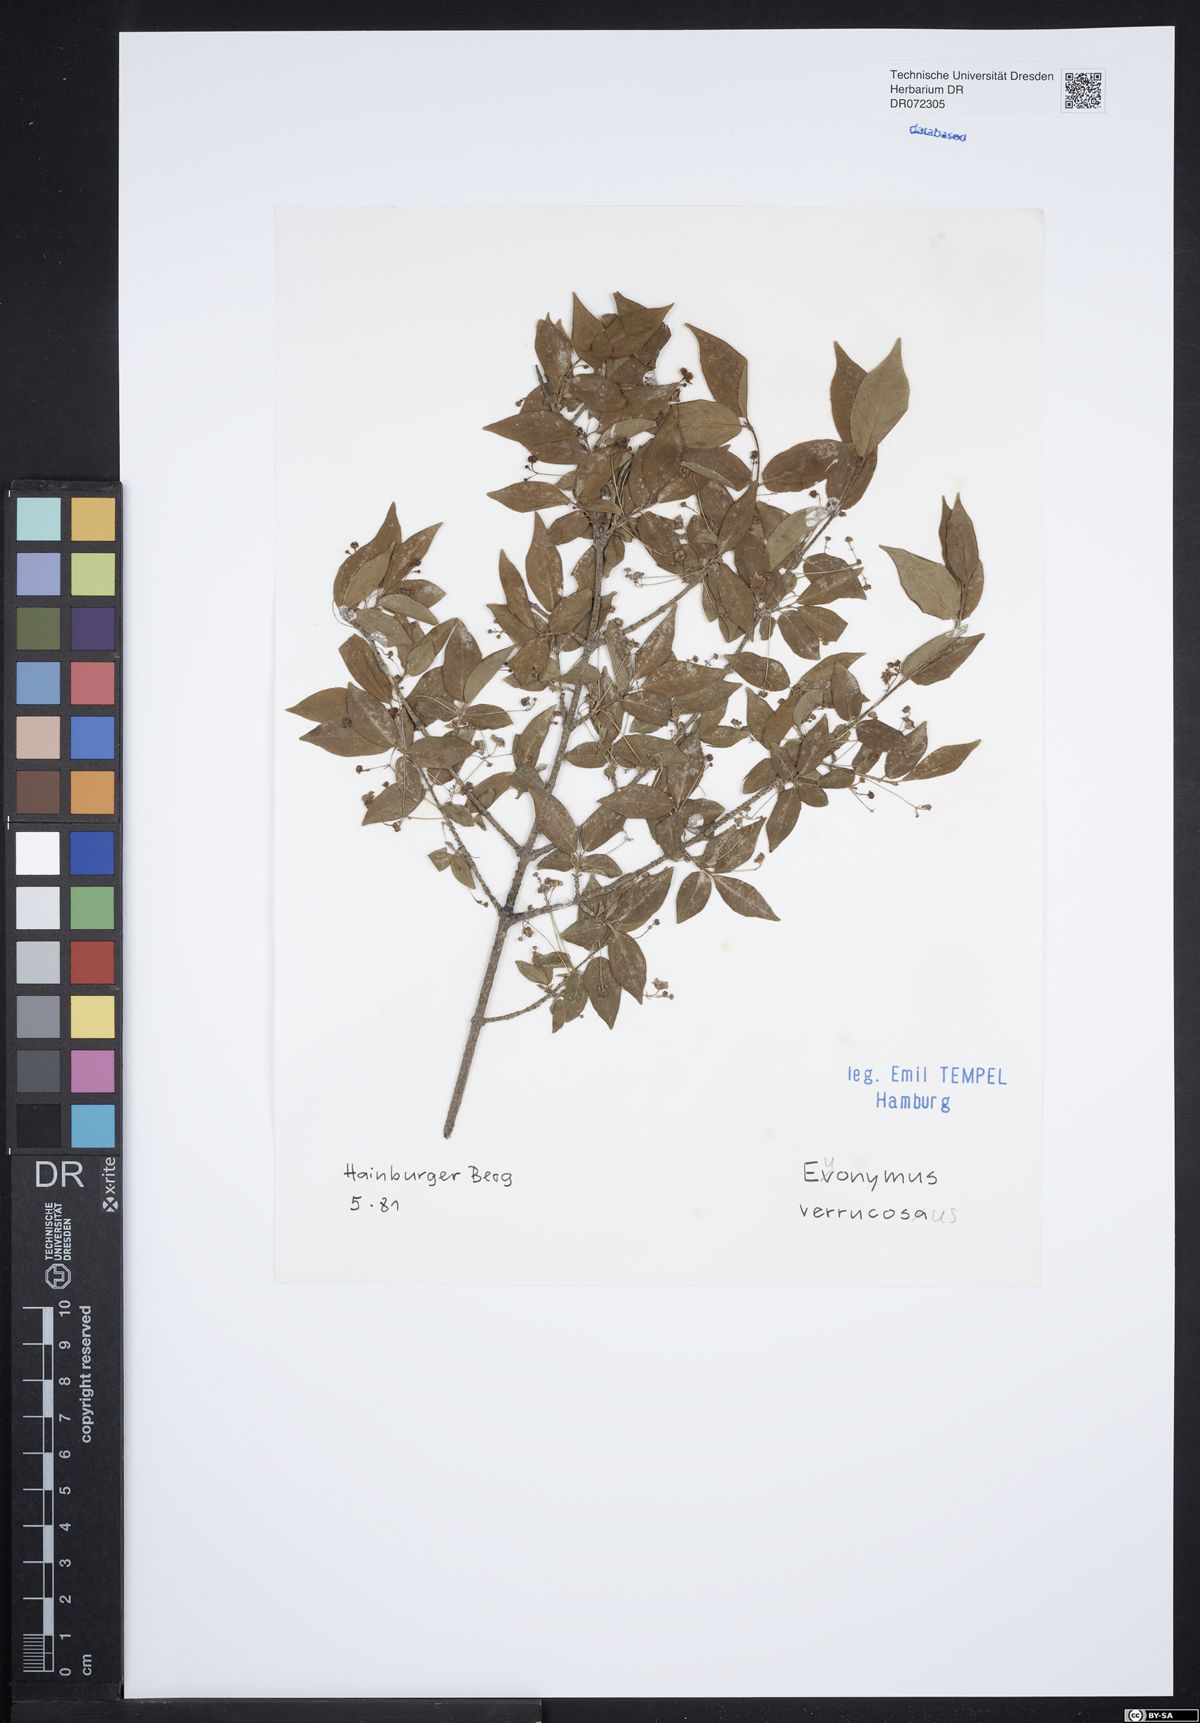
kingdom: Plantae
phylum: Tracheophyta
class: Magnoliopsida
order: Celastrales
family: Celastraceae
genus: Euonymus
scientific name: Euonymus verrucosus
